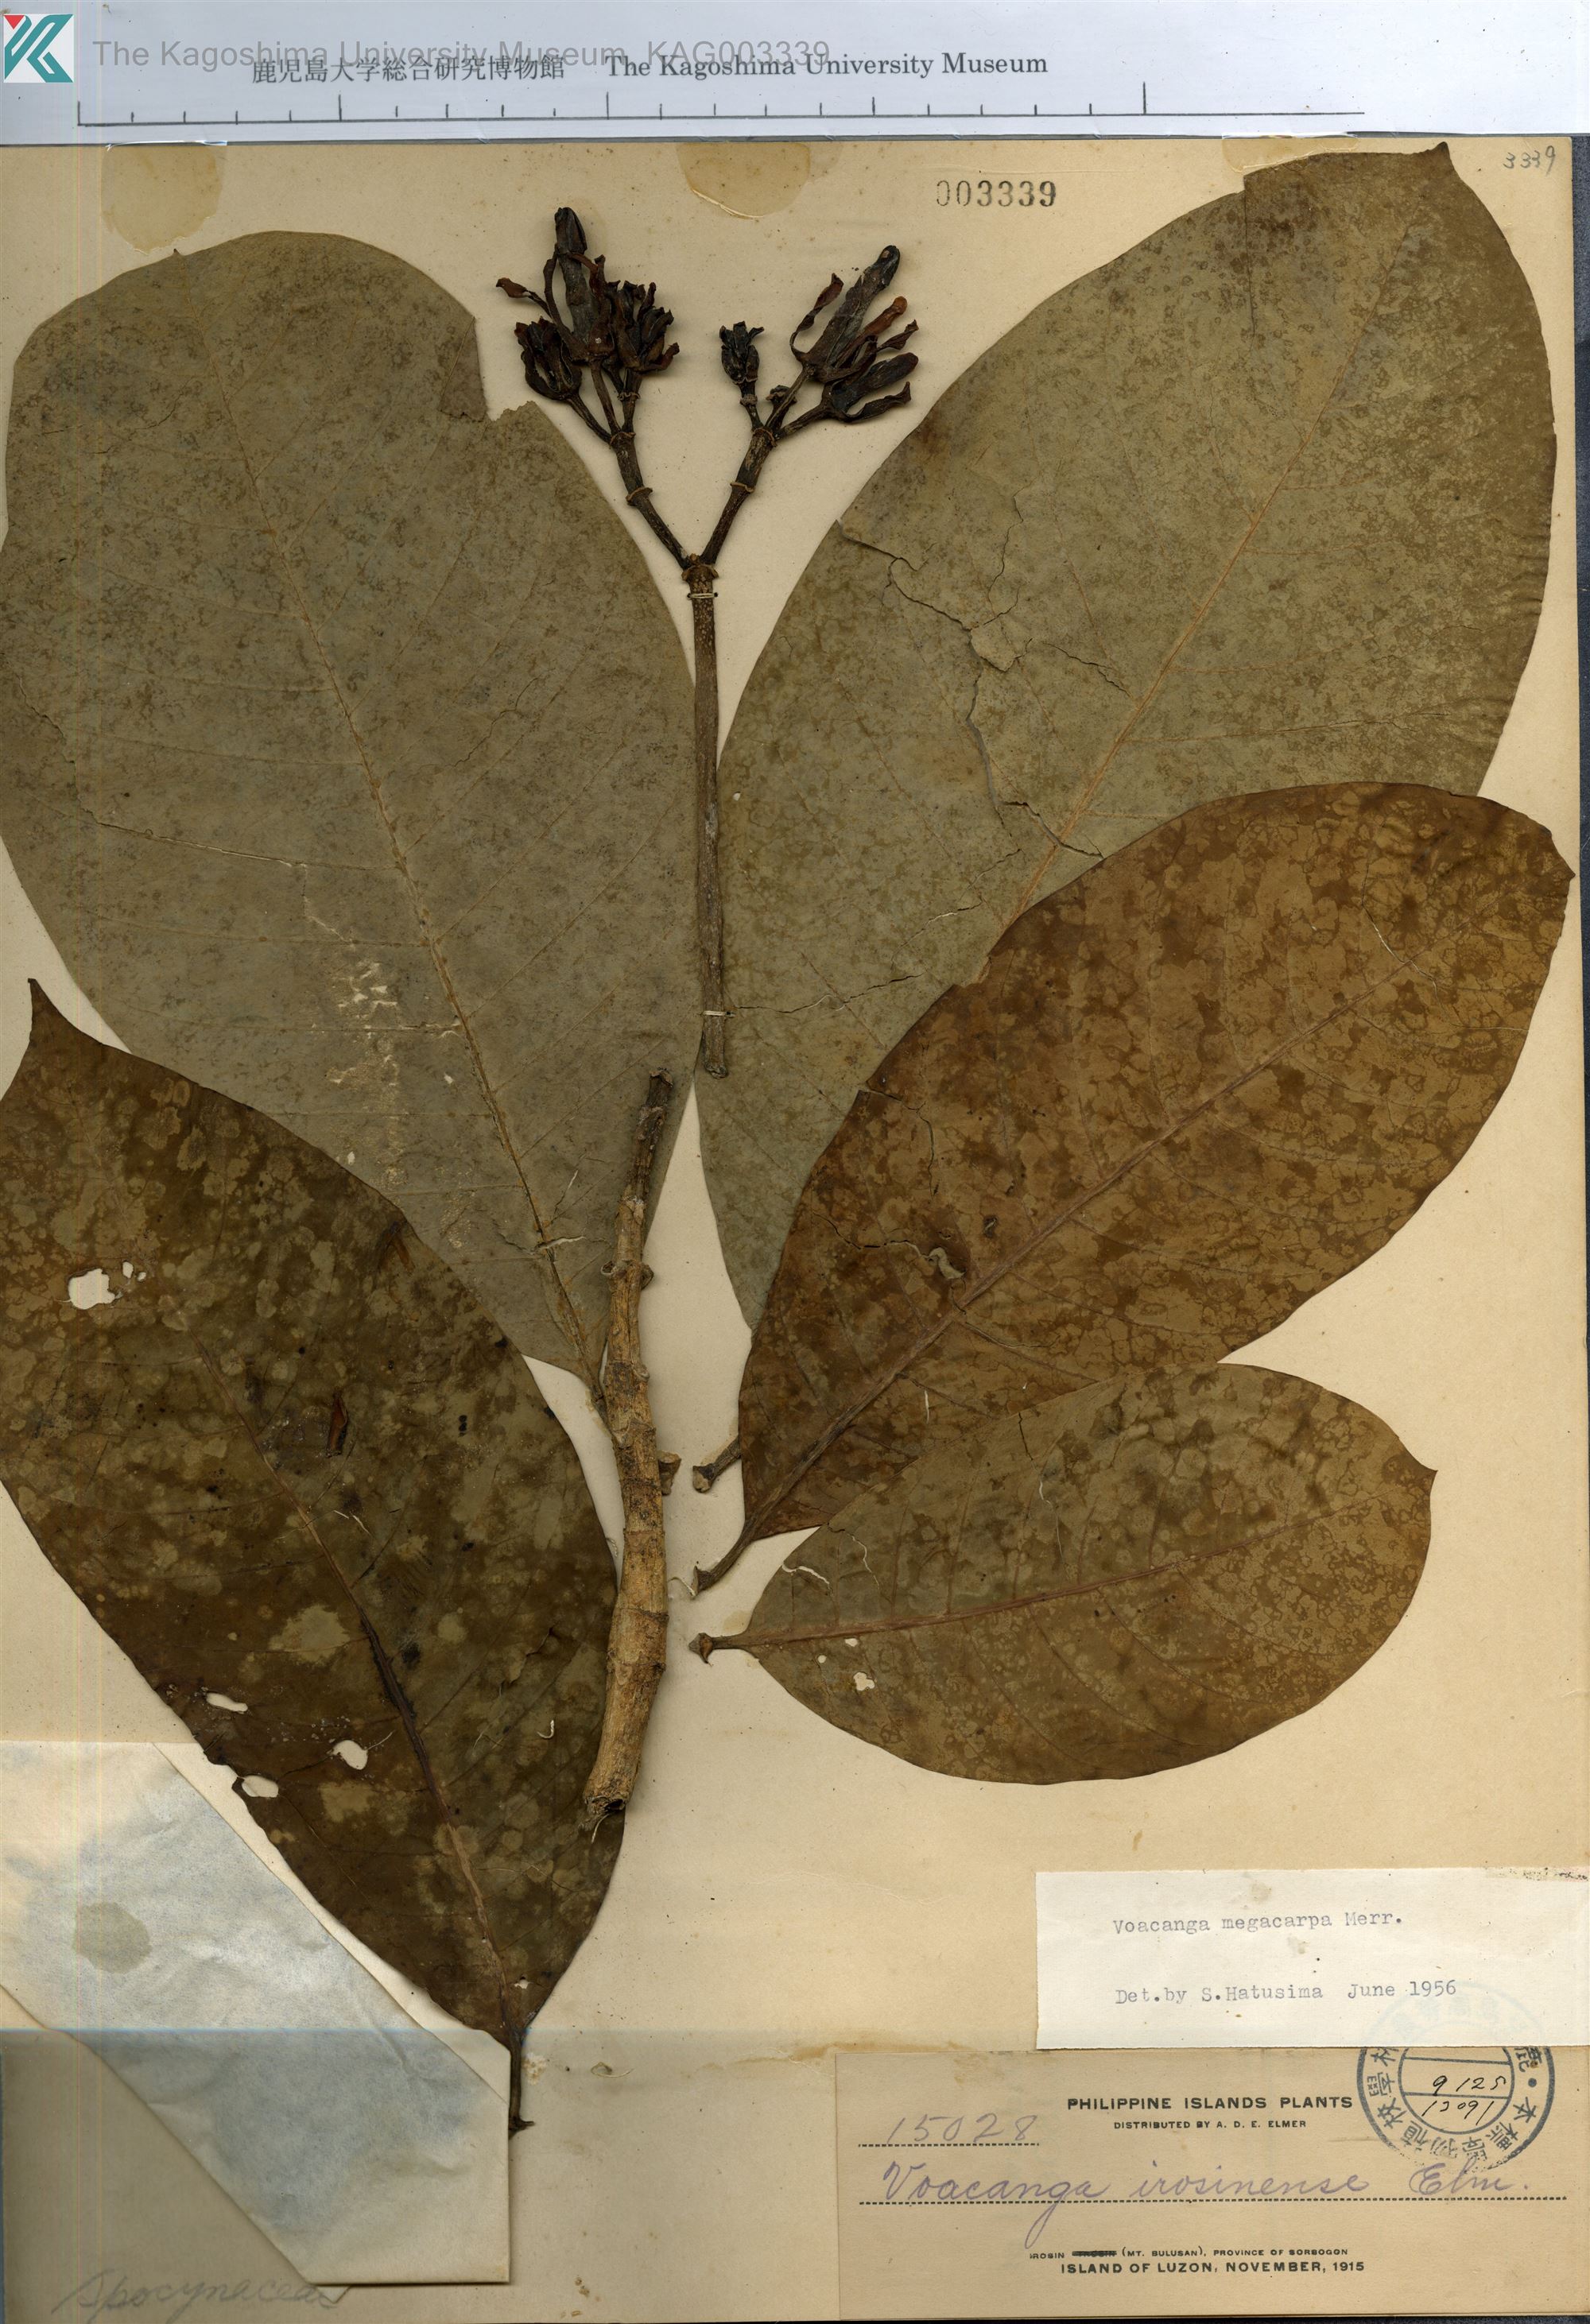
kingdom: Plantae
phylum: Tracheophyta
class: Magnoliopsida
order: Gentianales
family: Apocynaceae
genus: Voacanga
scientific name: Voacanga megacarpa
